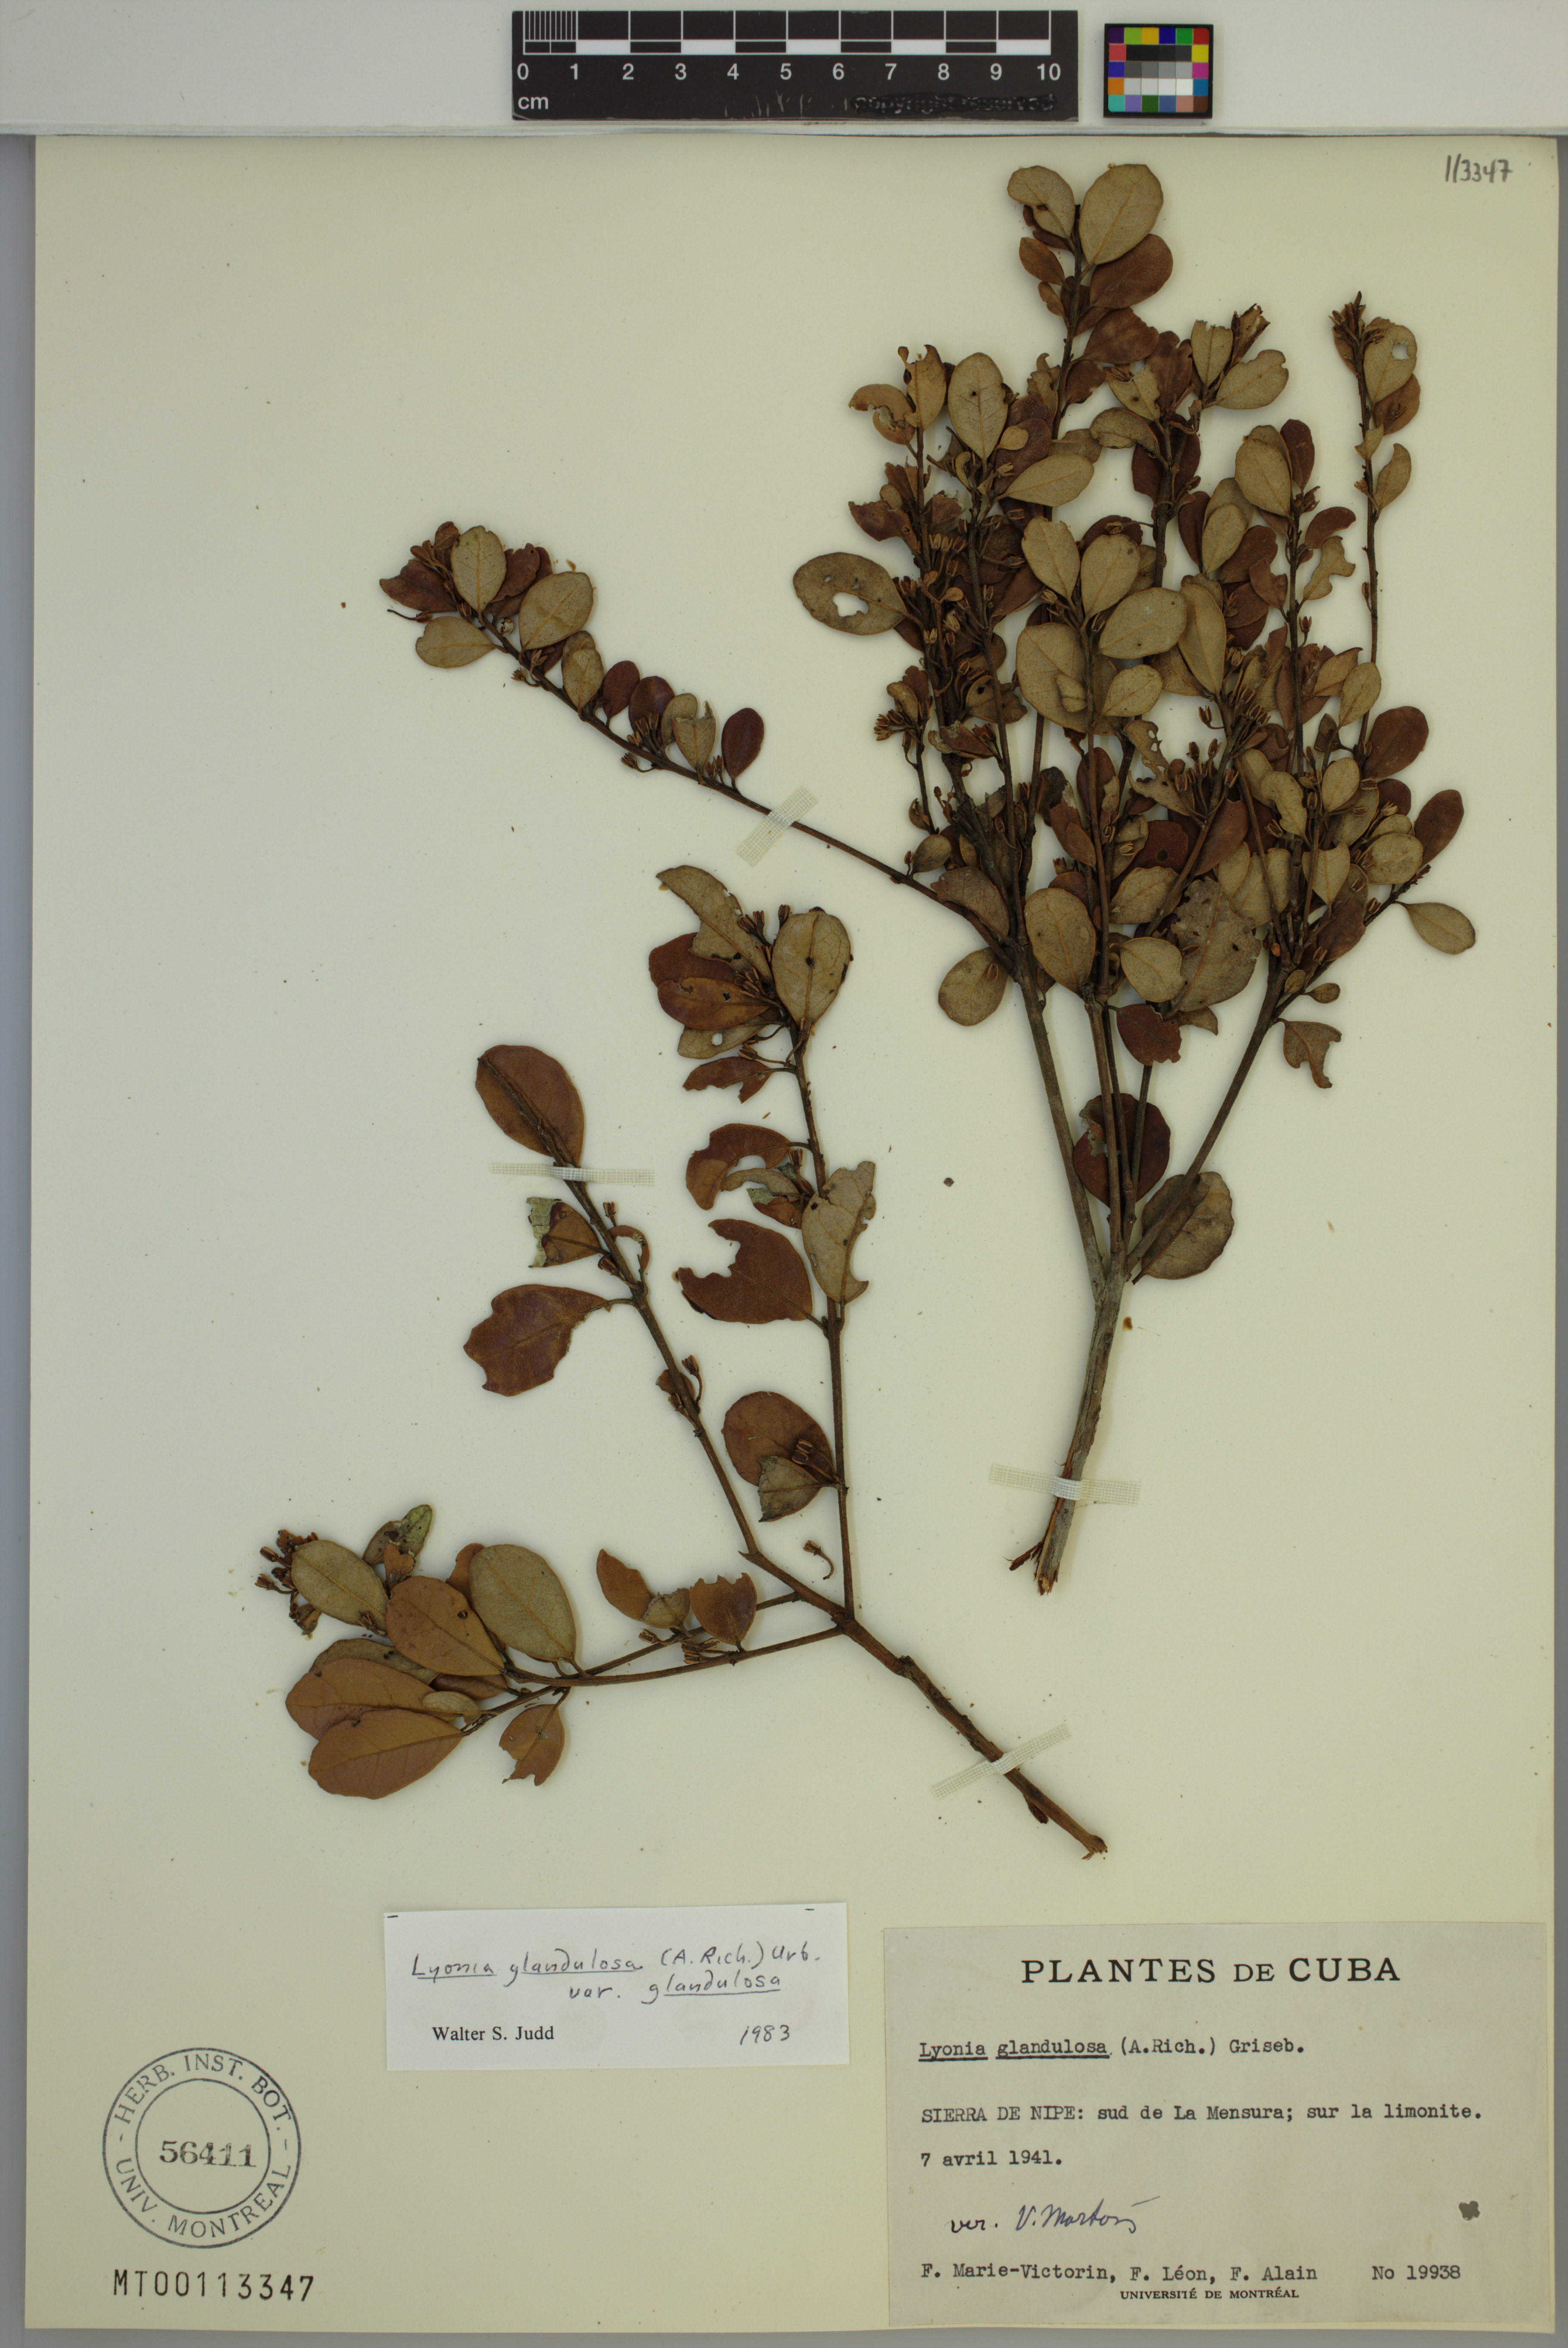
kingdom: Plantae
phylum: Tracheophyta
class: Magnoliopsida
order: Ericales
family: Ericaceae
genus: Lyonia
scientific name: Lyonia glandulosa
